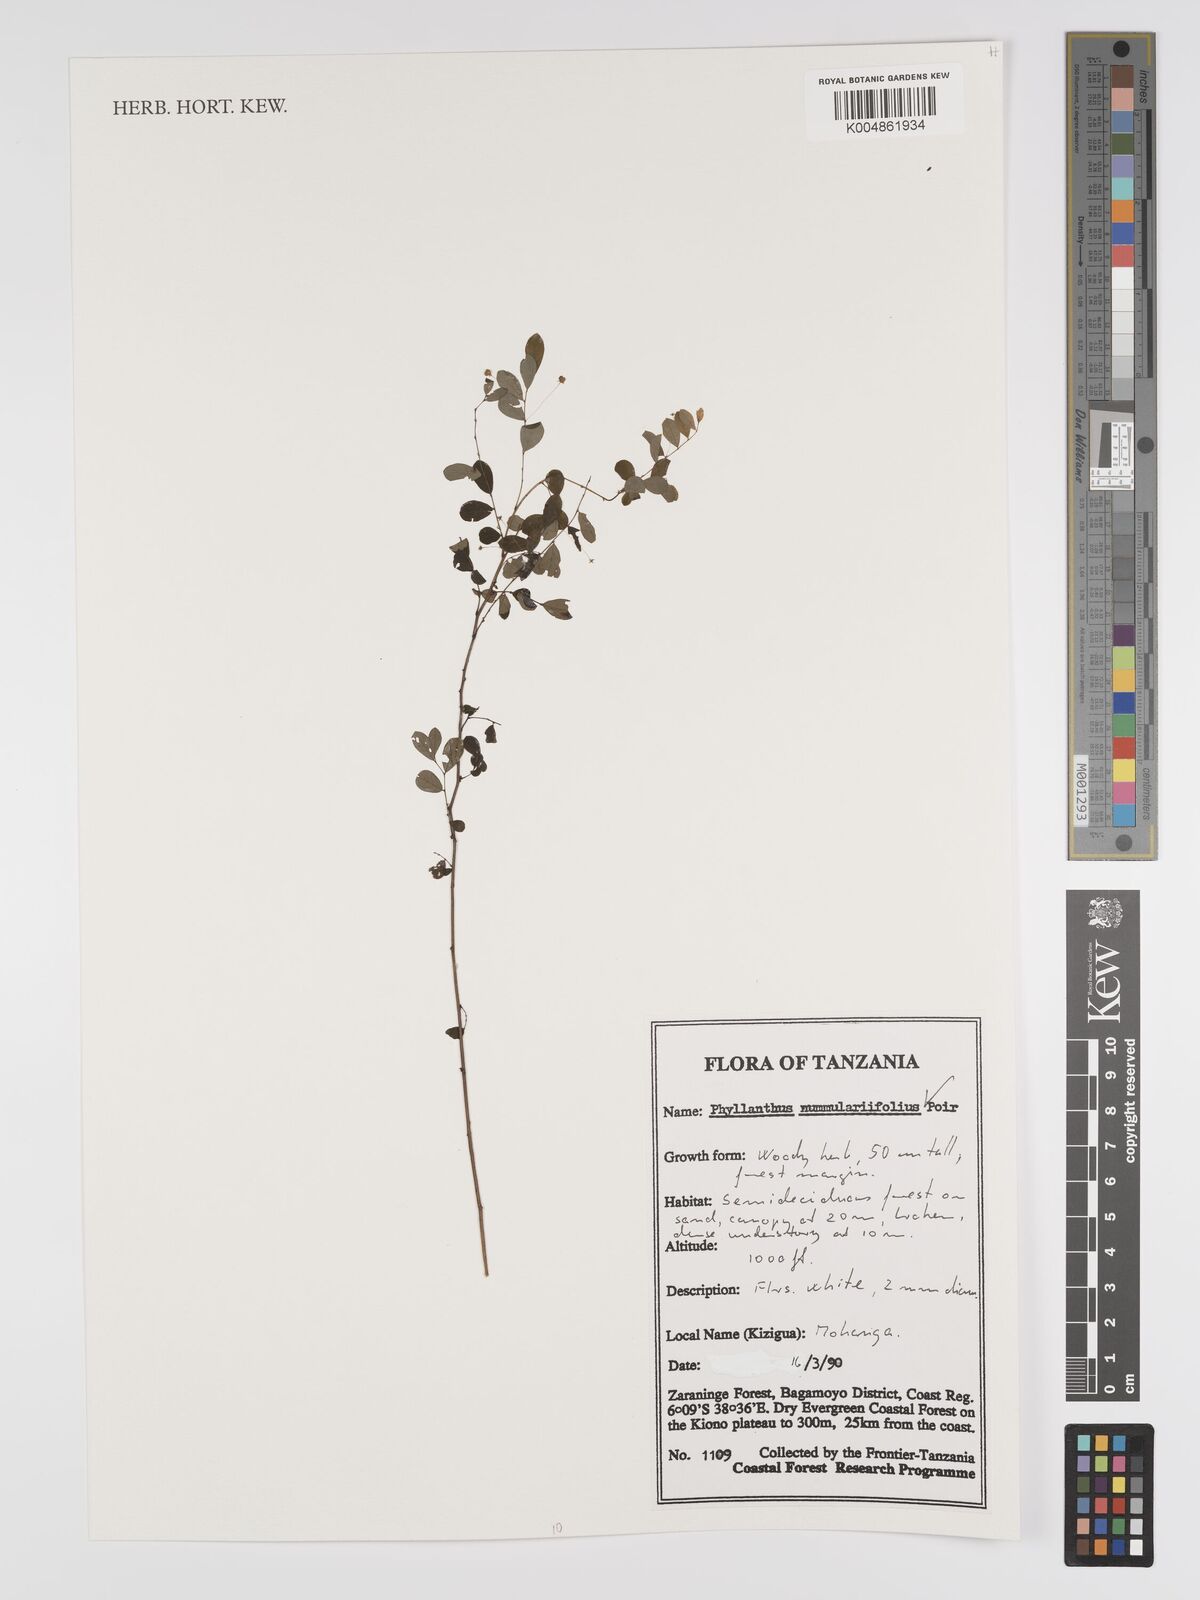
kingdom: Plantae
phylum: Tracheophyta
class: Magnoliopsida
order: Malpighiales
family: Phyllanthaceae
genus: Phyllanthus
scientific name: Phyllanthus nummulariifolius
